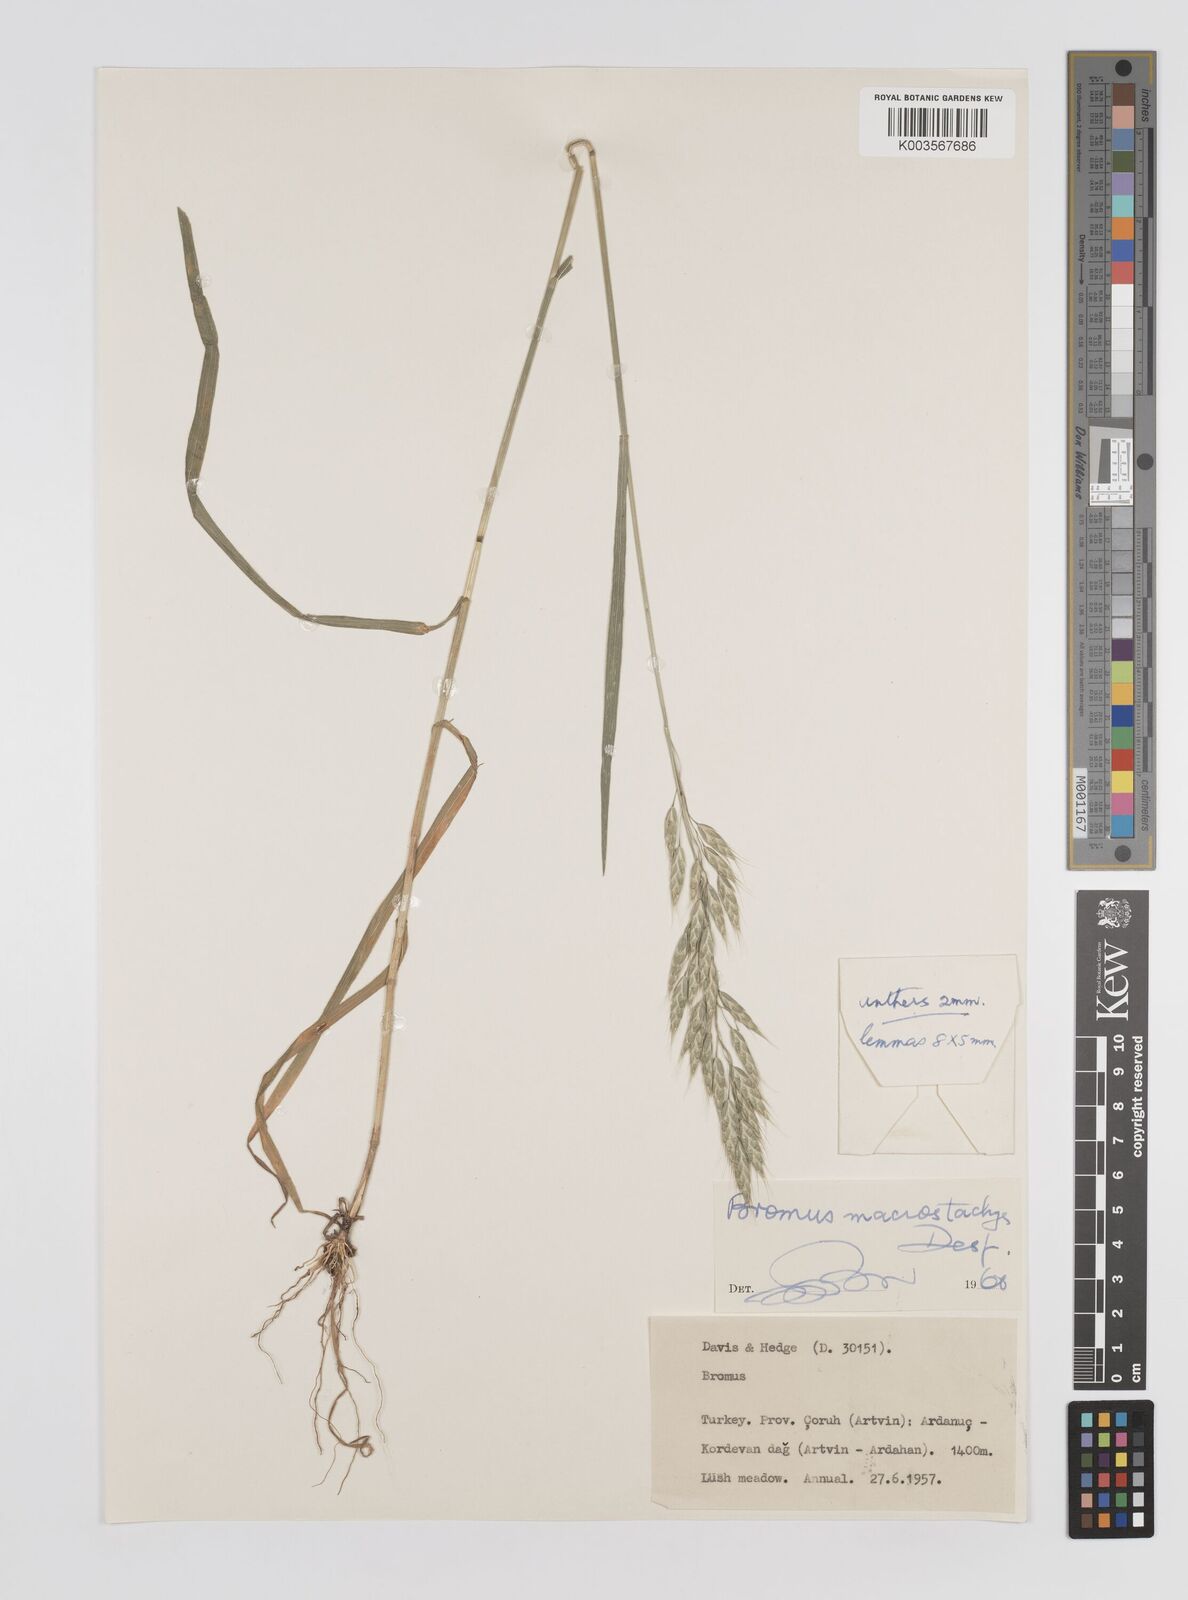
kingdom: Plantae
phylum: Tracheophyta
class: Liliopsida
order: Poales
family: Poaceae
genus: Bromus
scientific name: Bromus
